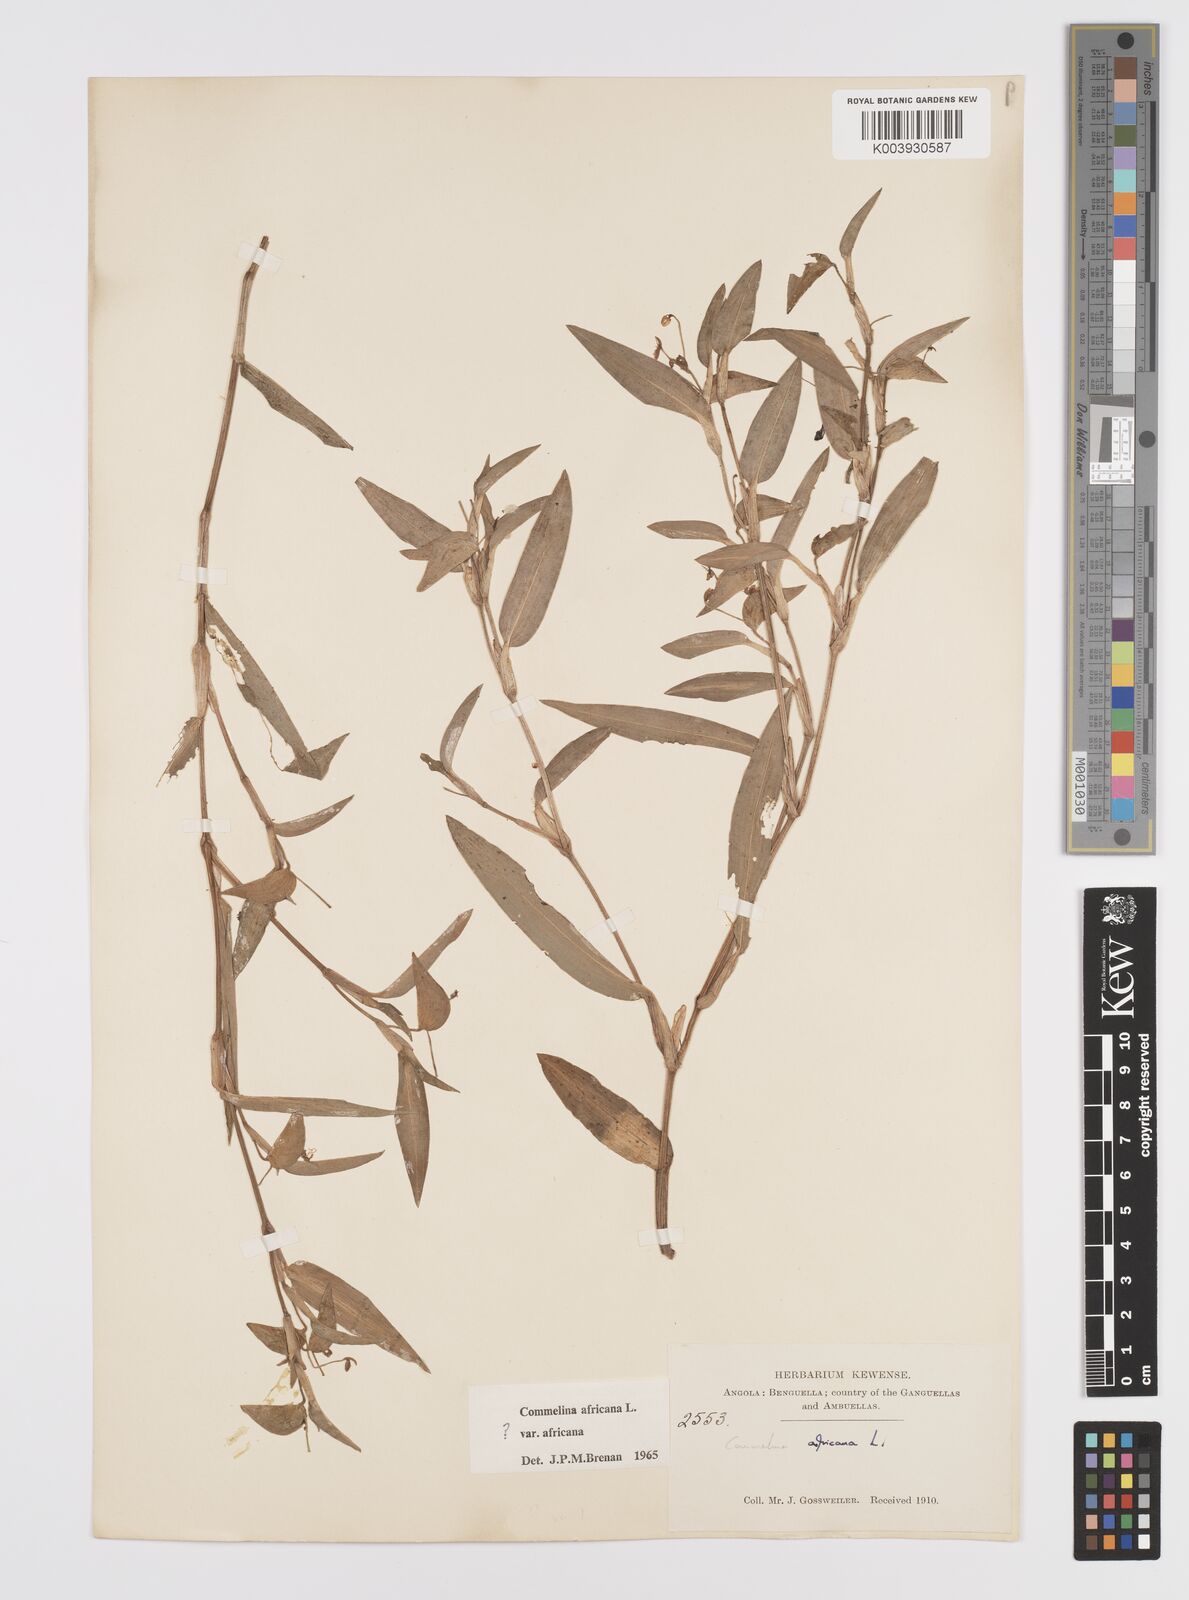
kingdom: Plantae
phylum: Tracheophyta
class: Liliopsida
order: Commelinales
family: Commelinaceae
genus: Commelina
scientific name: Commelina africana
